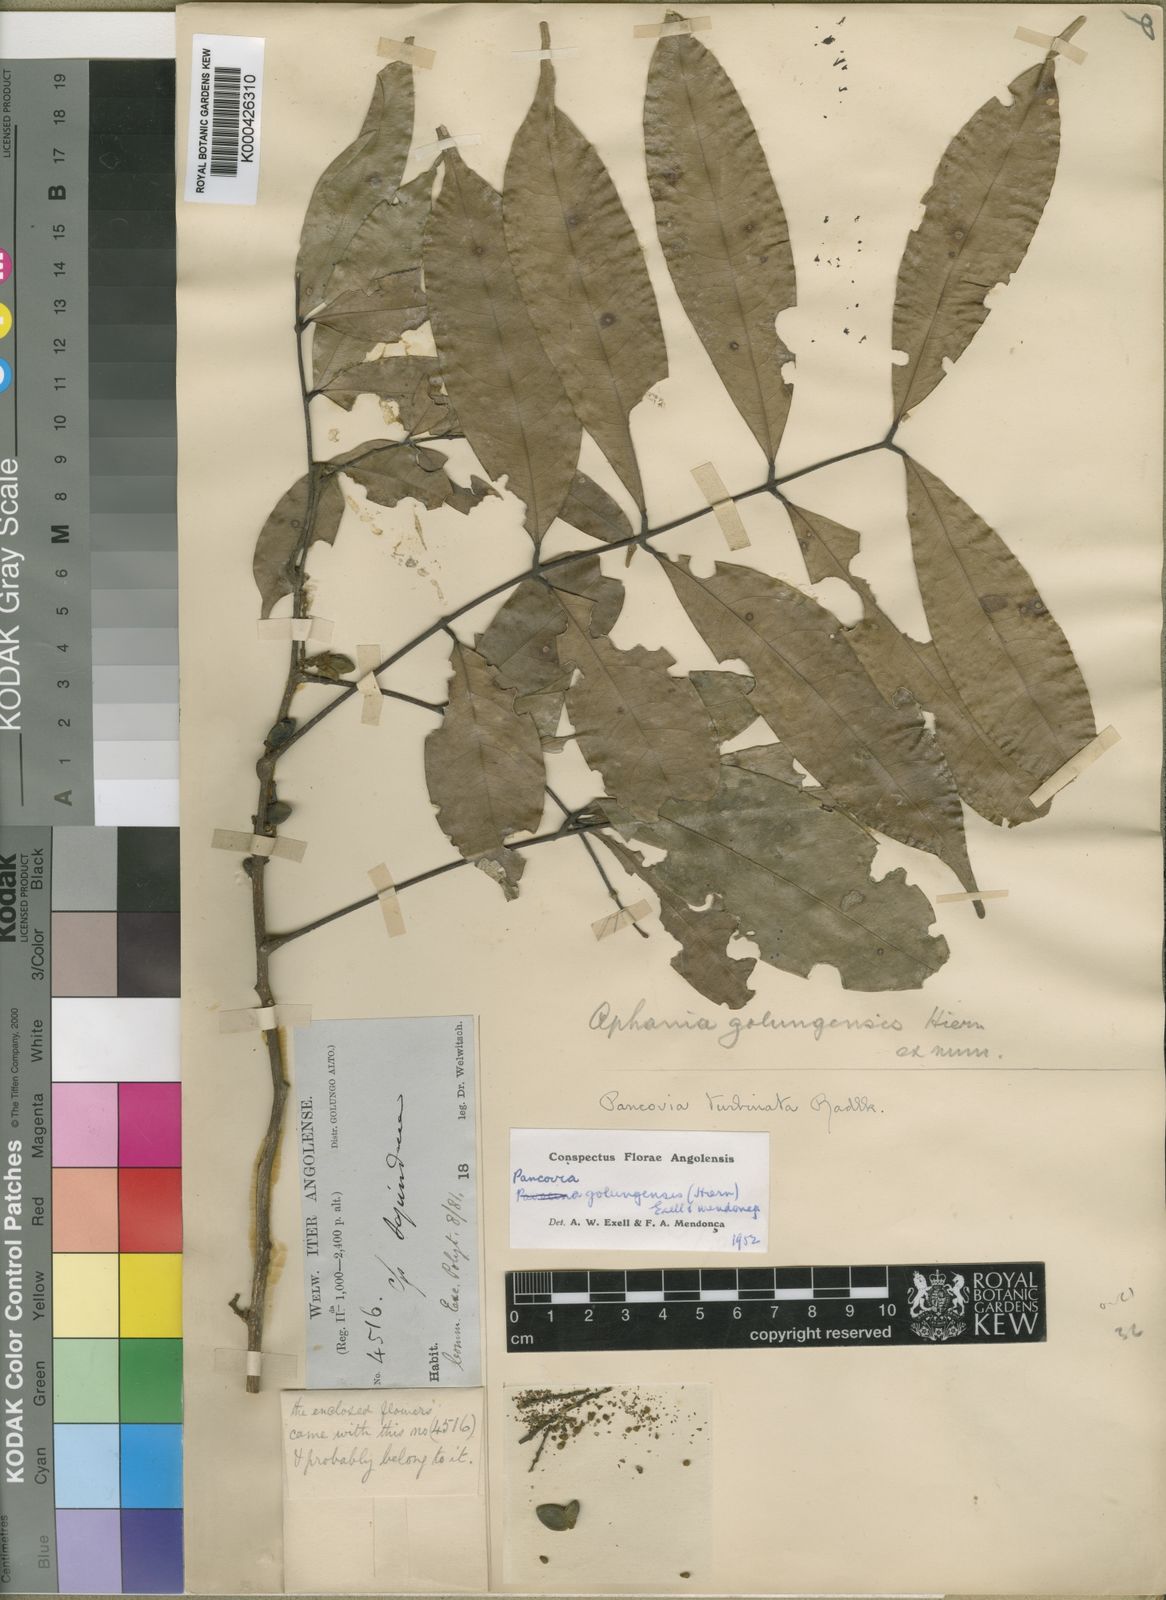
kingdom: Plantae
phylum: Tracheophyta
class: Magnoliopsida
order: Sapindales
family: Sapindaceae
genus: Pancovia
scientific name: Pancovia
